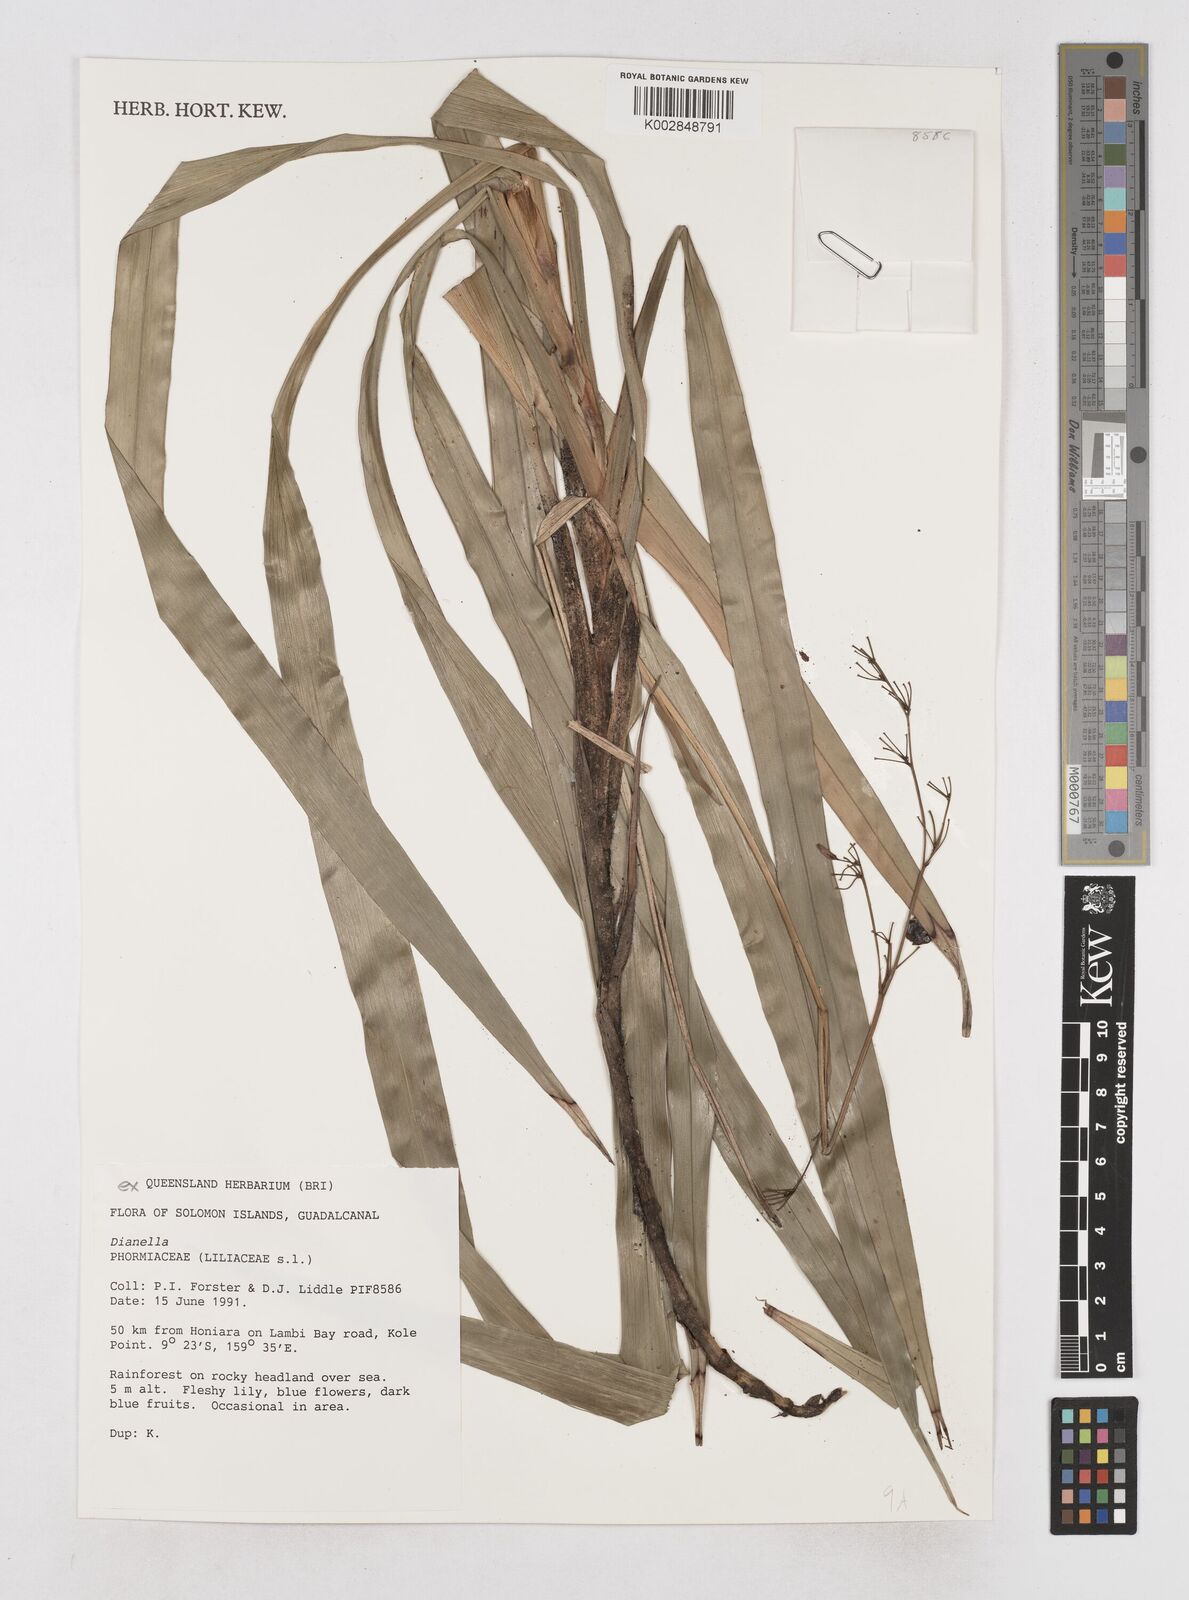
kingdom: Plantae
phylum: Tracheophyta
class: Liliopsida
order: Asparagales
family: Asphodelaceae
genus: Dianella
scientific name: Dianella
